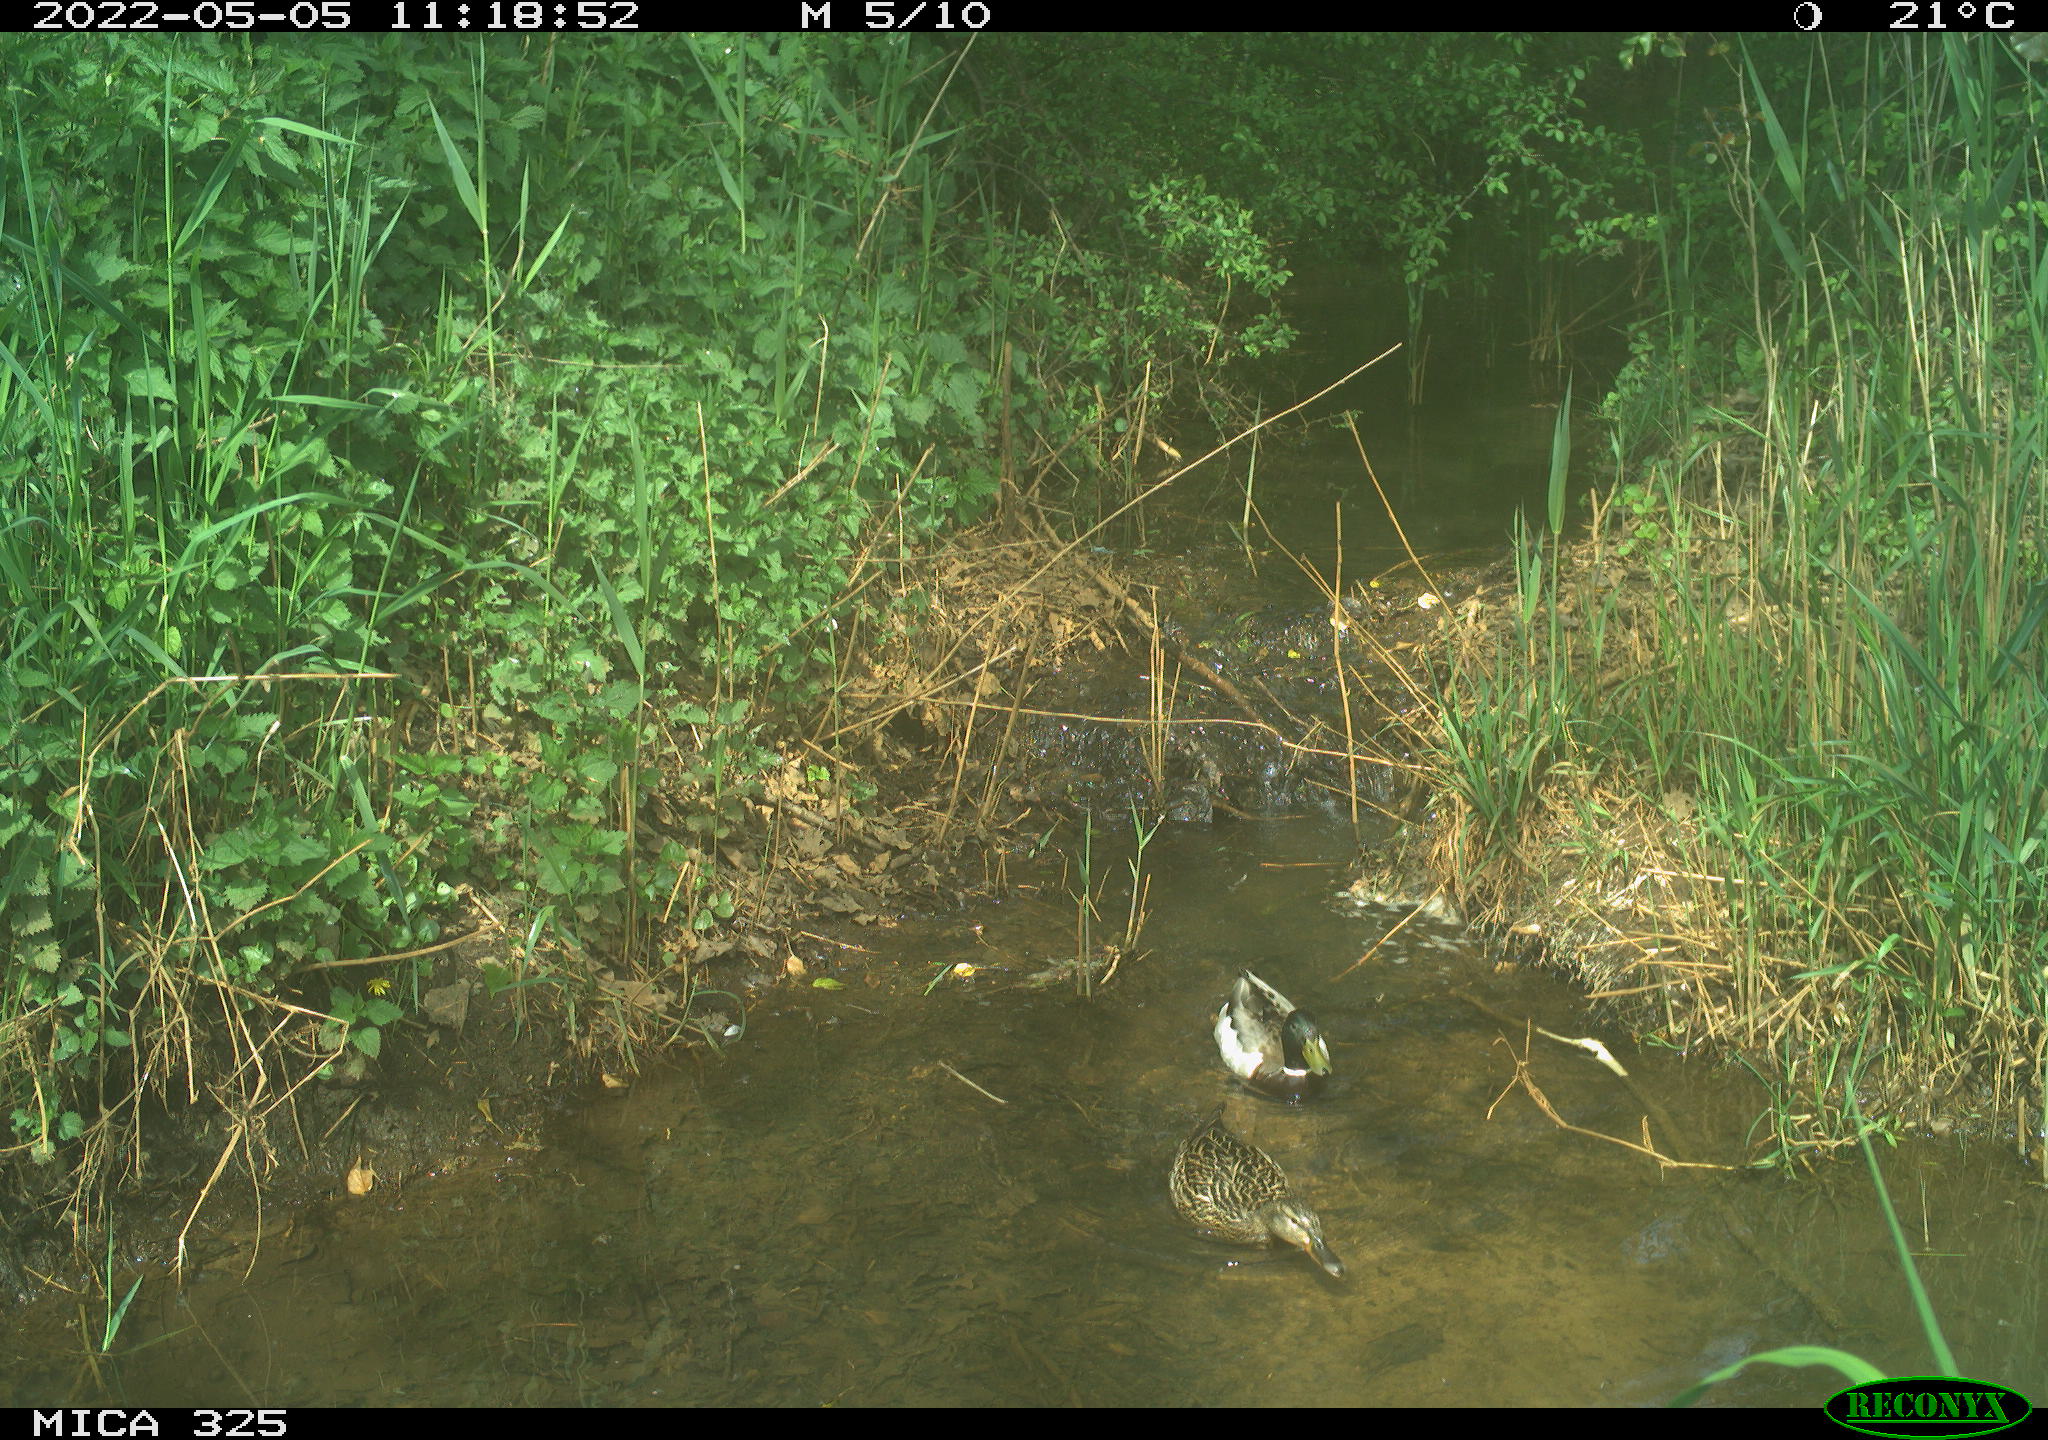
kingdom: Animalia
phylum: Chordata
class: Aves
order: Anseriformes
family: Anatidae
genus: Anas
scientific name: Anas platyrhynchos
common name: Mallard
